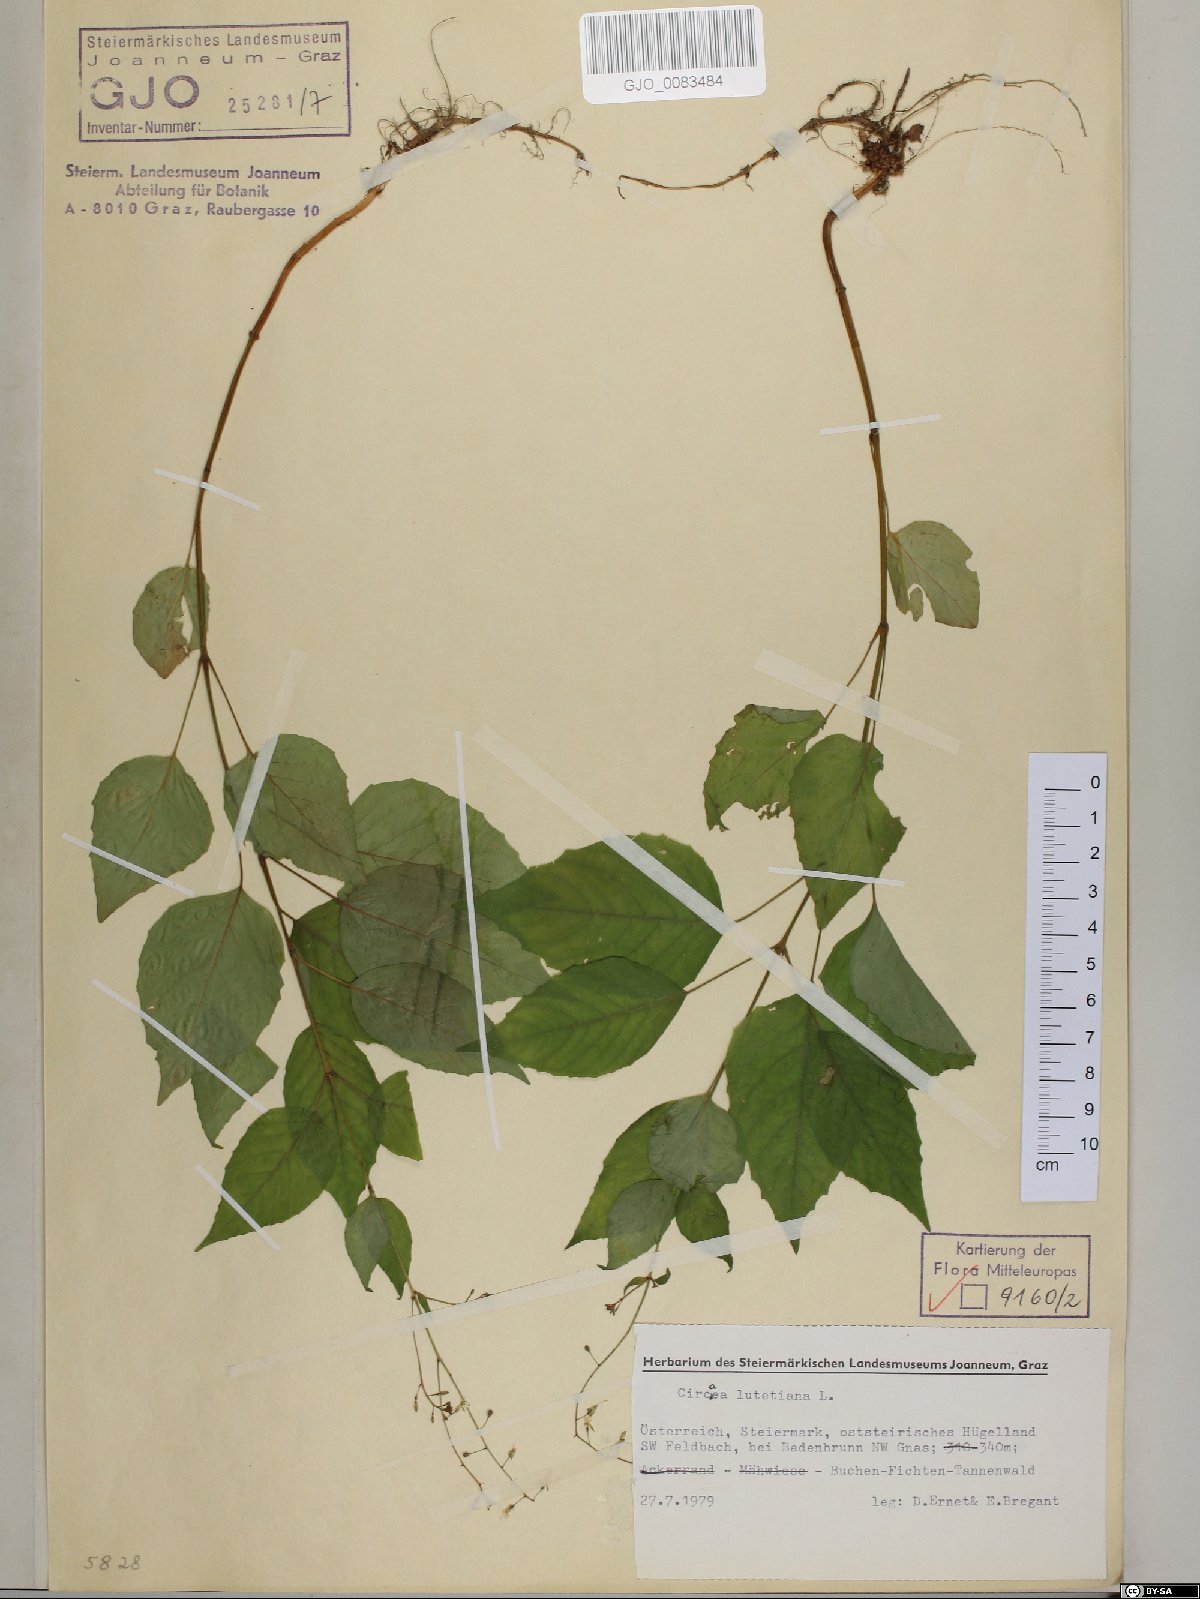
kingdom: Plantae
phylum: Tracheophyta
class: Magnoliopsida
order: Myrtales
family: Onagraceae
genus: Circaea
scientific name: Circaea lutetiana
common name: Enchanter's-nightshade
